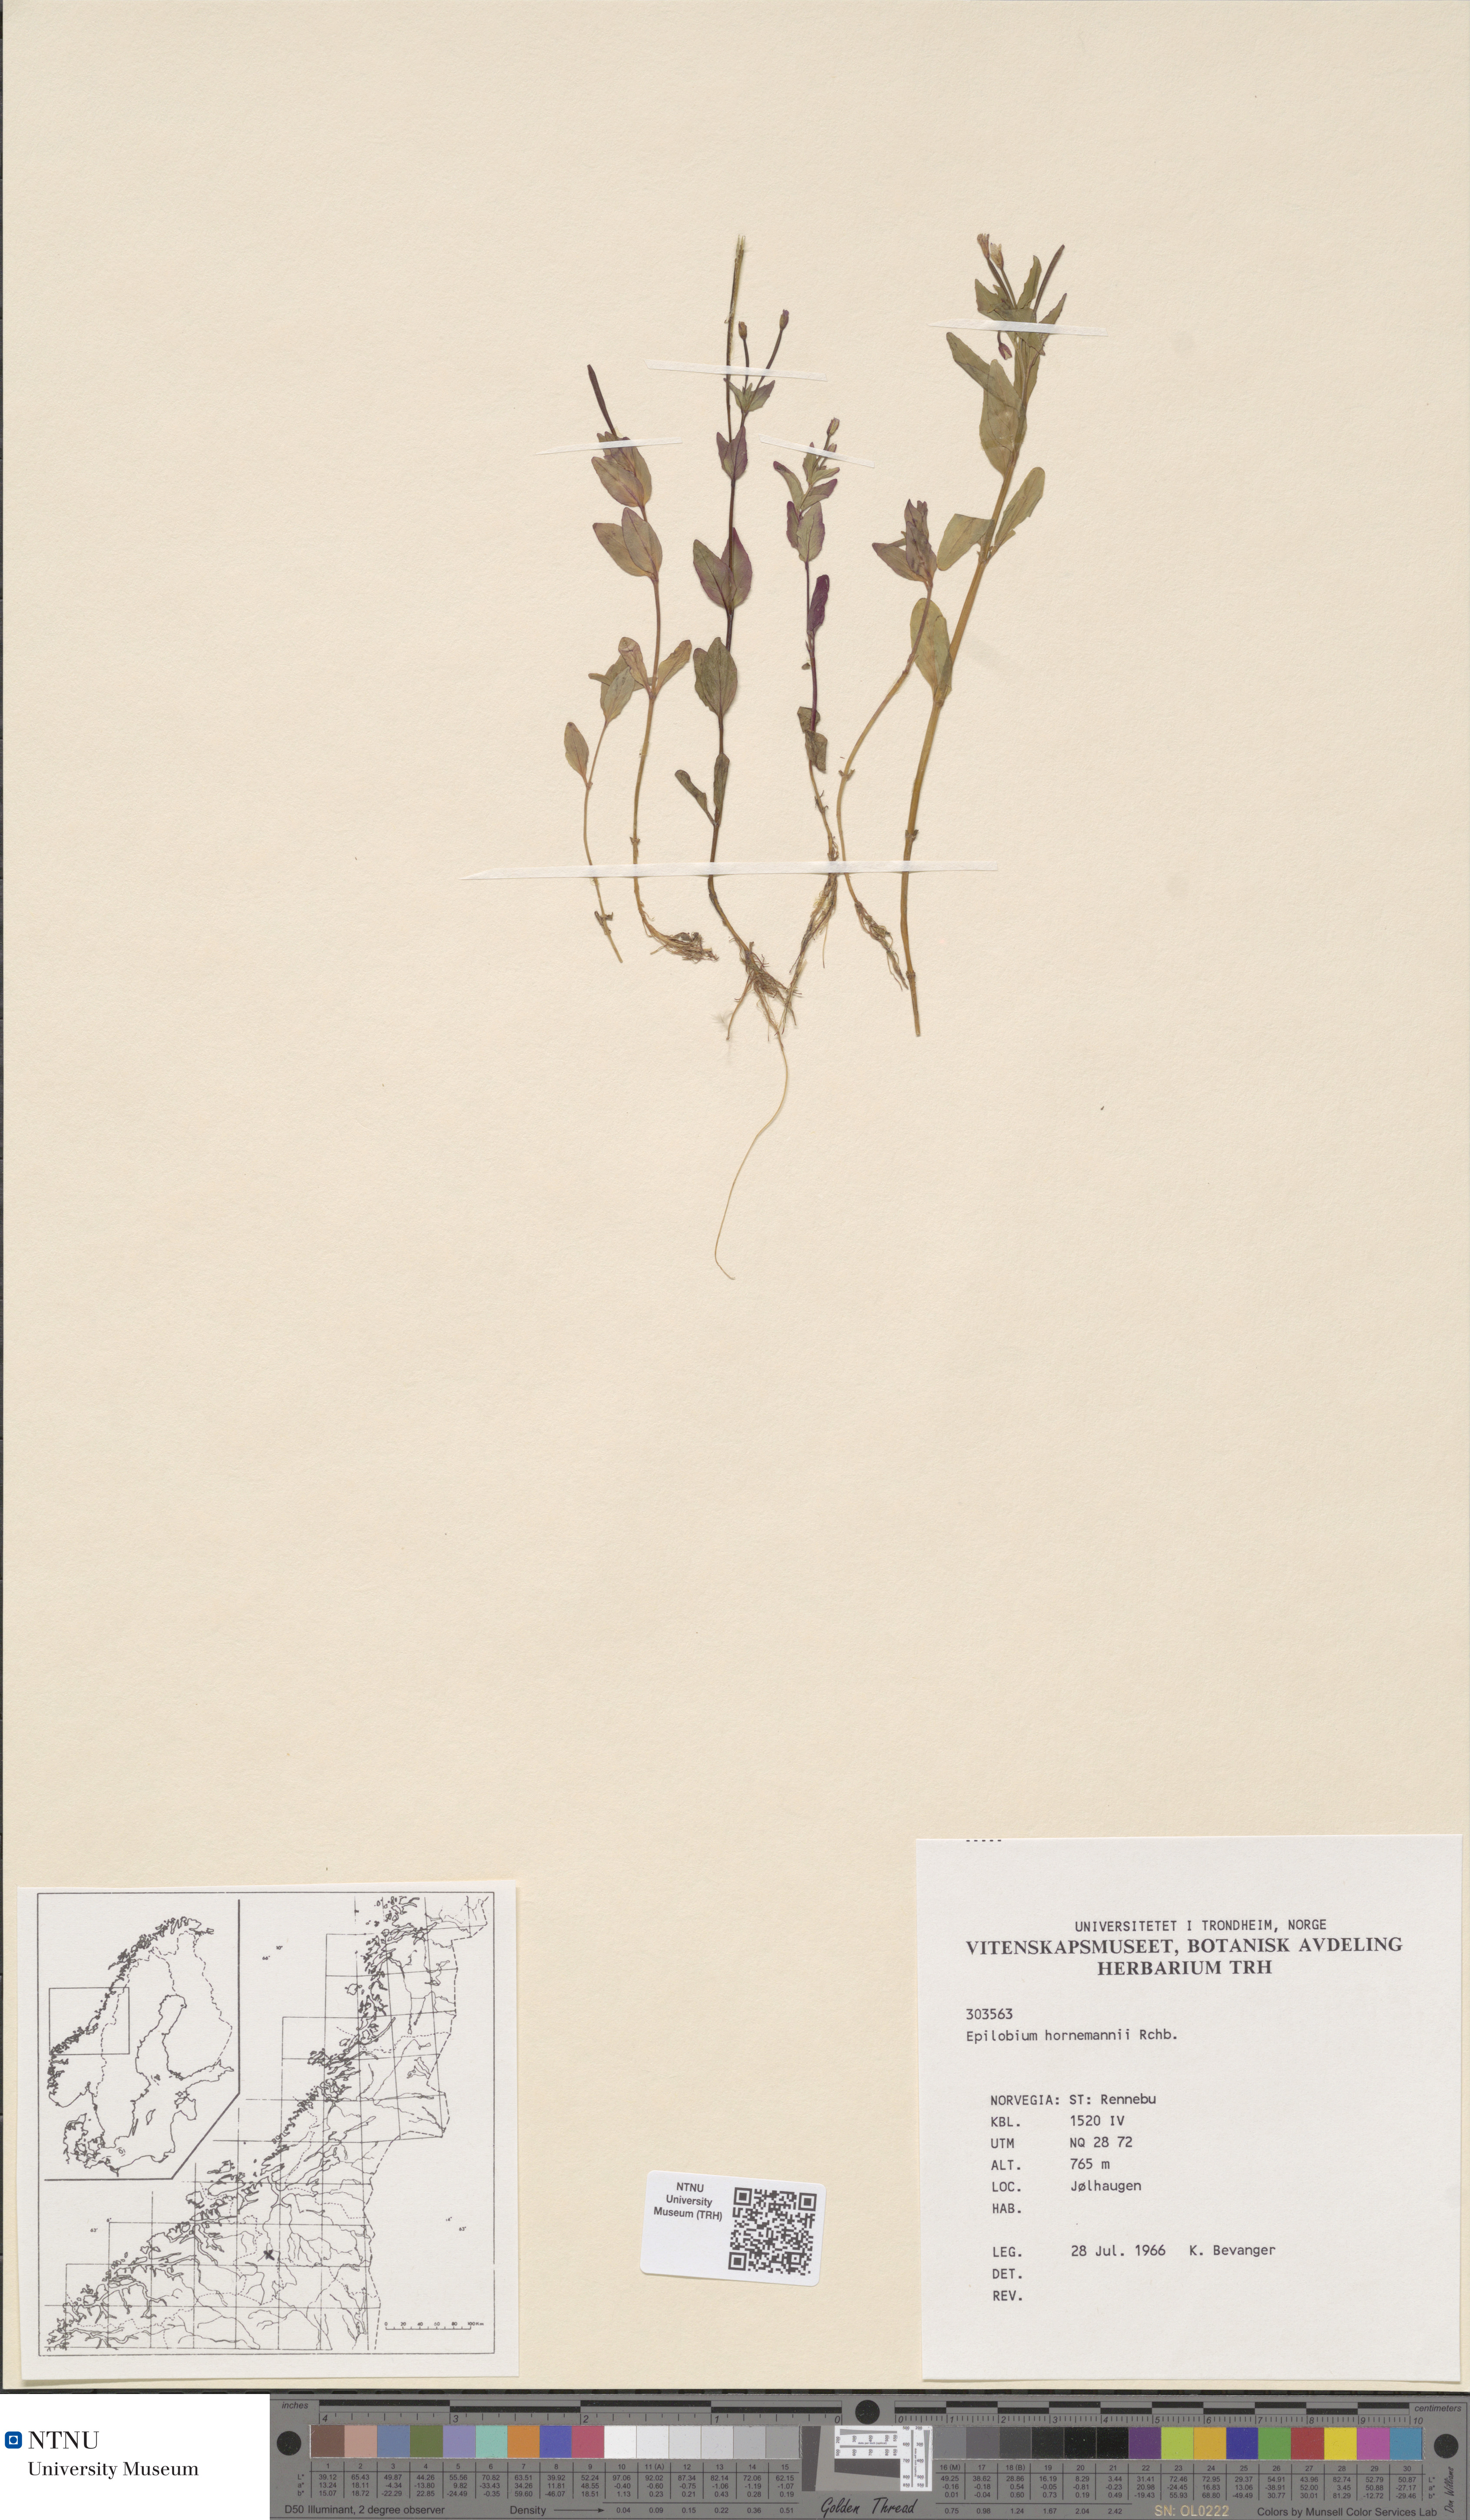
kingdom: Plantae
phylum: Tracheophyta
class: Magnoliopsida
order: Myrtales
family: Onagraceae
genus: Epilobium
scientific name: Epilobium hornemannii
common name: Hornemann's willowherb
